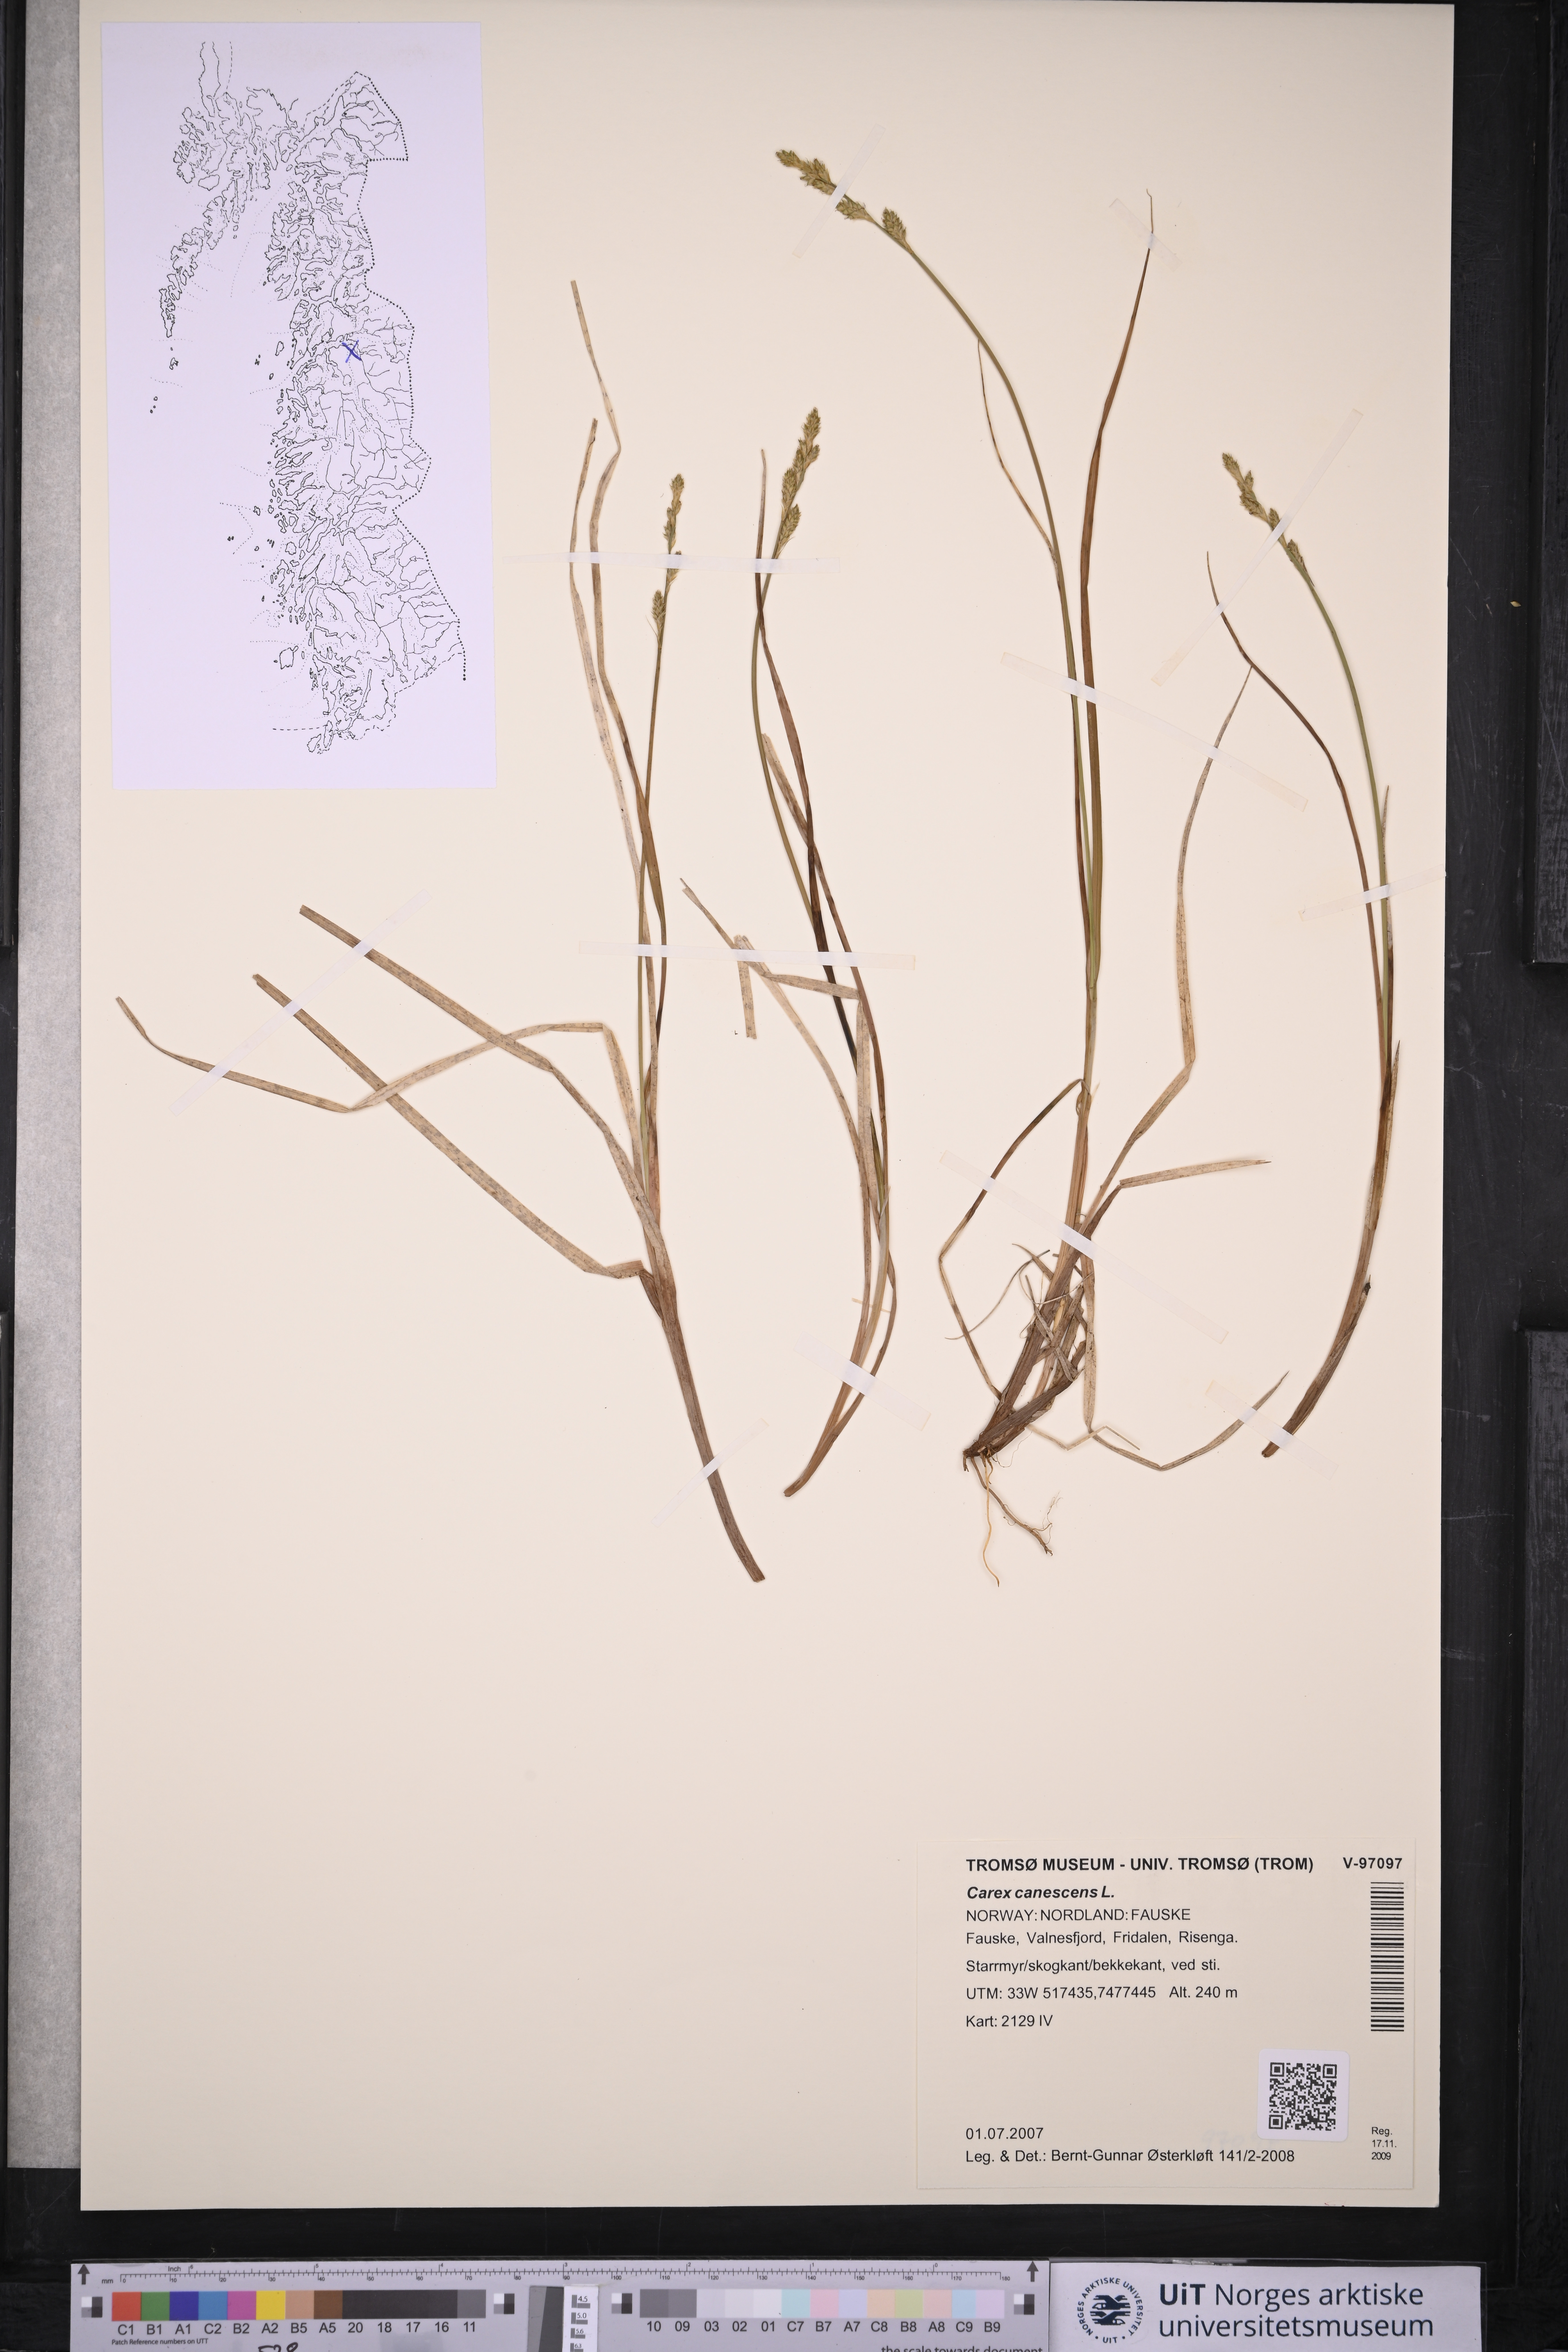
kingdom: Plantae
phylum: Tracheophyta
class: Liliopsida
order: Poales
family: Cyperaceae
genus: Carex
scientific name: Carex canescens
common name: White sedge
